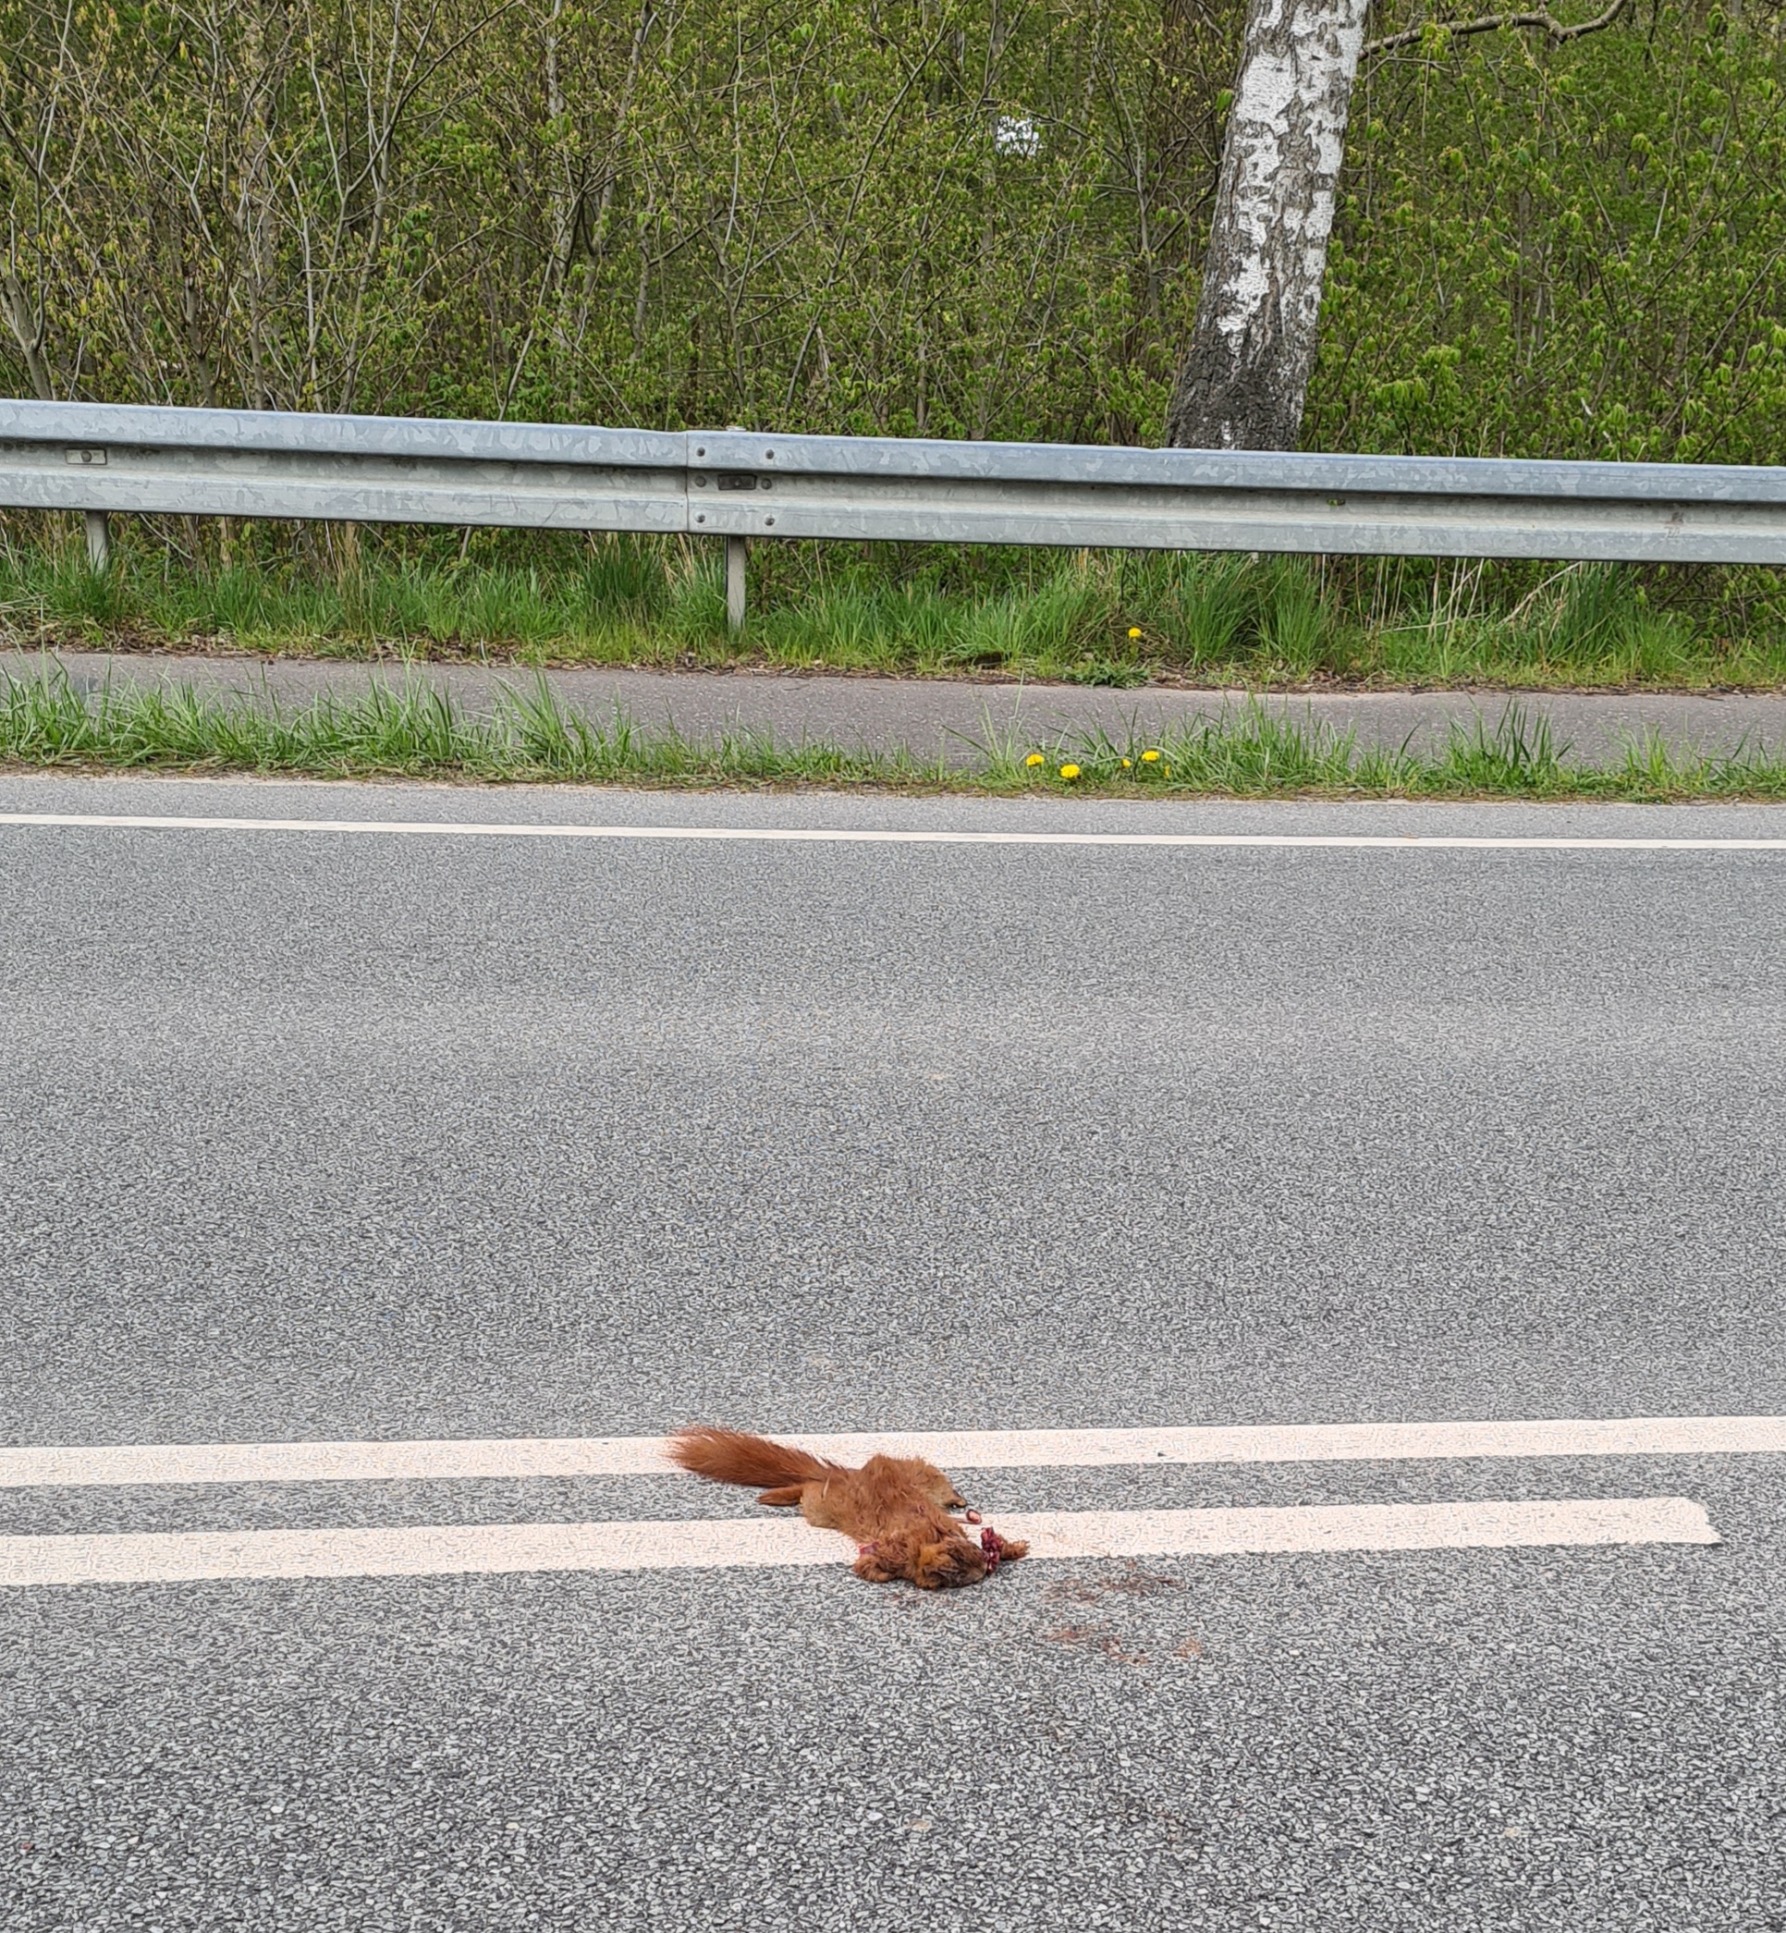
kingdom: Animalia
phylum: Chordata
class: Mammalia
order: Rodentia
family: Sciuridae
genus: Sciurus
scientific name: Sciurus vulgaris
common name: Egern
